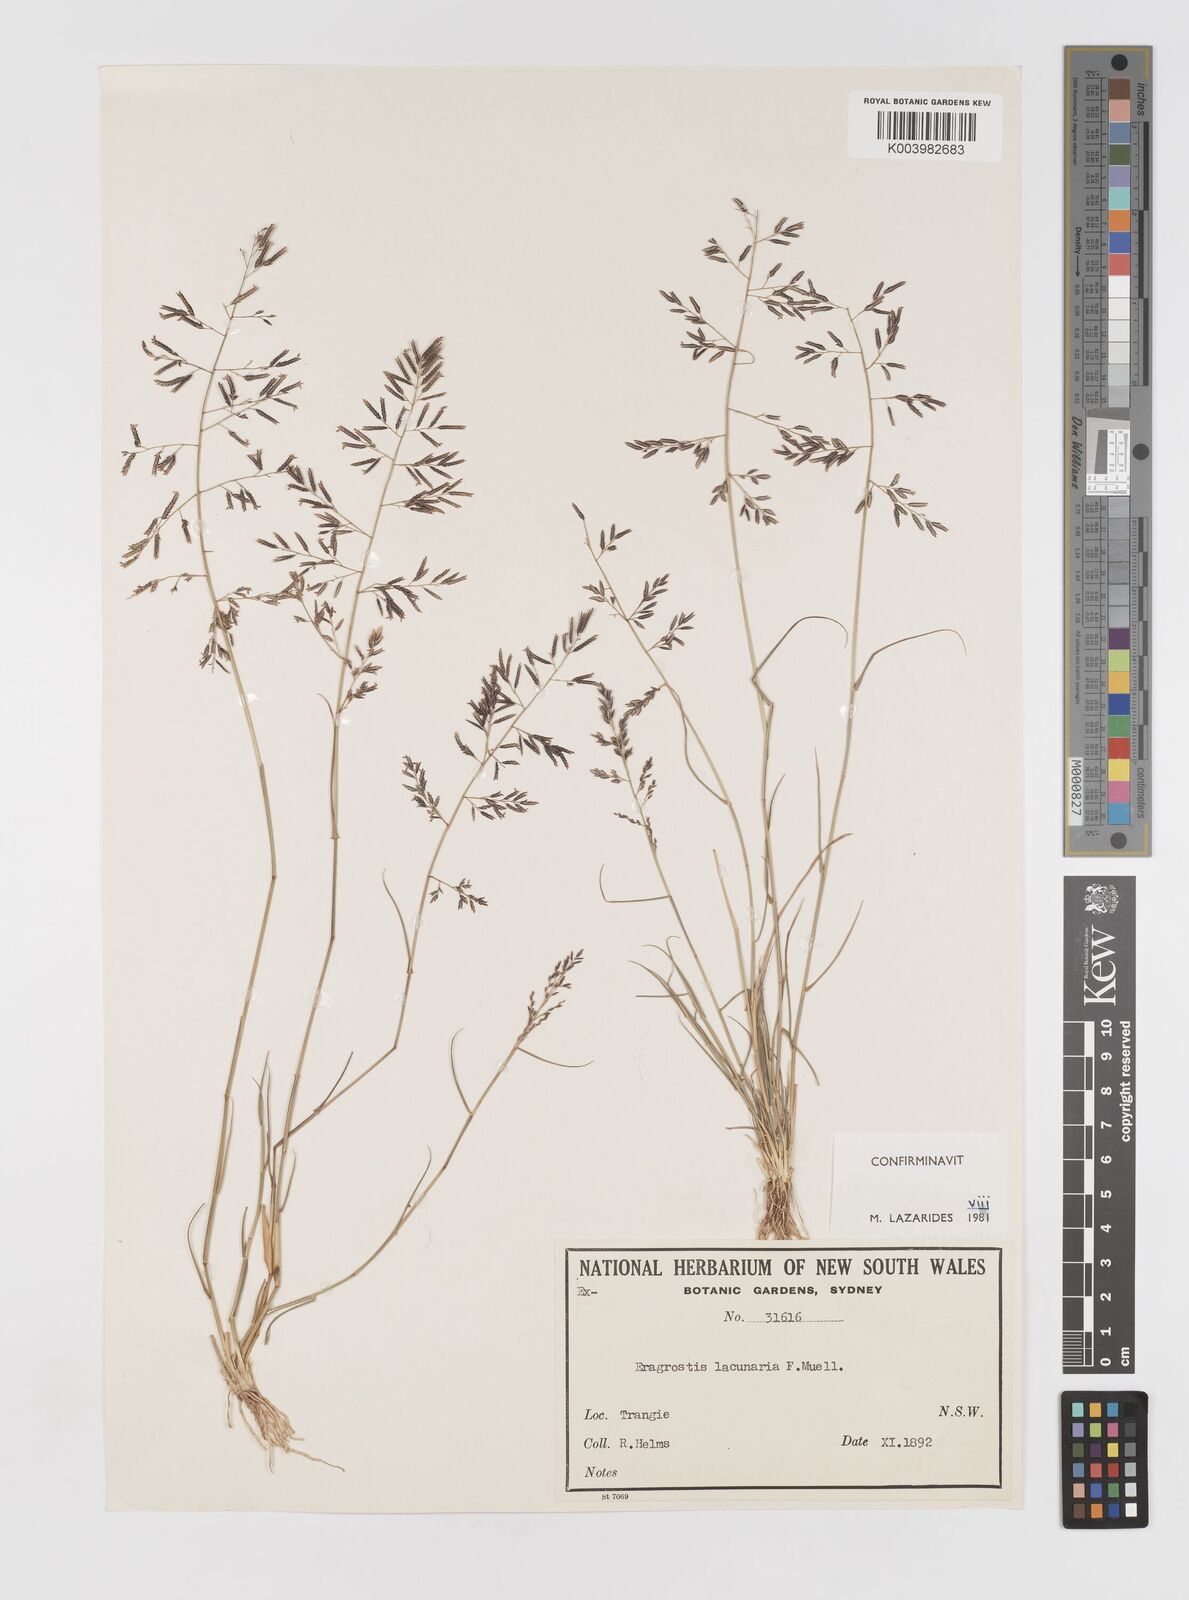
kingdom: Plantae
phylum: Tracheophyta
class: Liliopsida
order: Poales
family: Poaceae
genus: Eragrostis
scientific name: Eragrostis lacunaria
